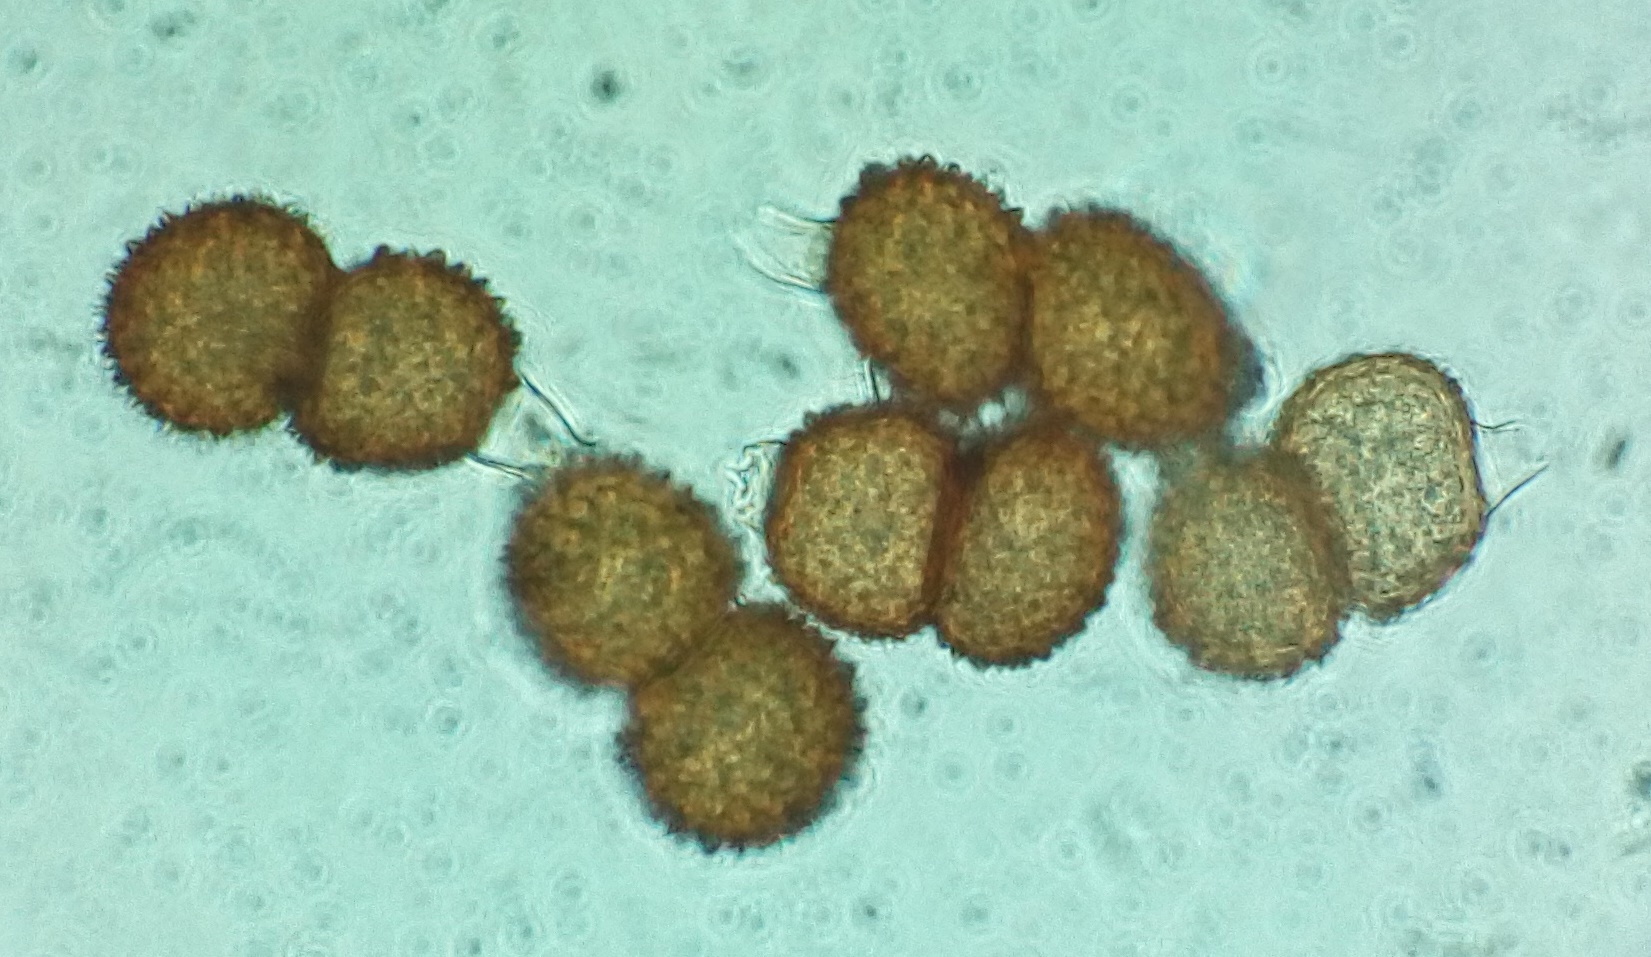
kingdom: Fungi
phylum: Basidiomycota
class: Pucciniomycetes
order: Pucciniales
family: Tranzscheliaceae
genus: Tranzschelia
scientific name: Tranzschelia anemones
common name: anemone-knæksporerust
